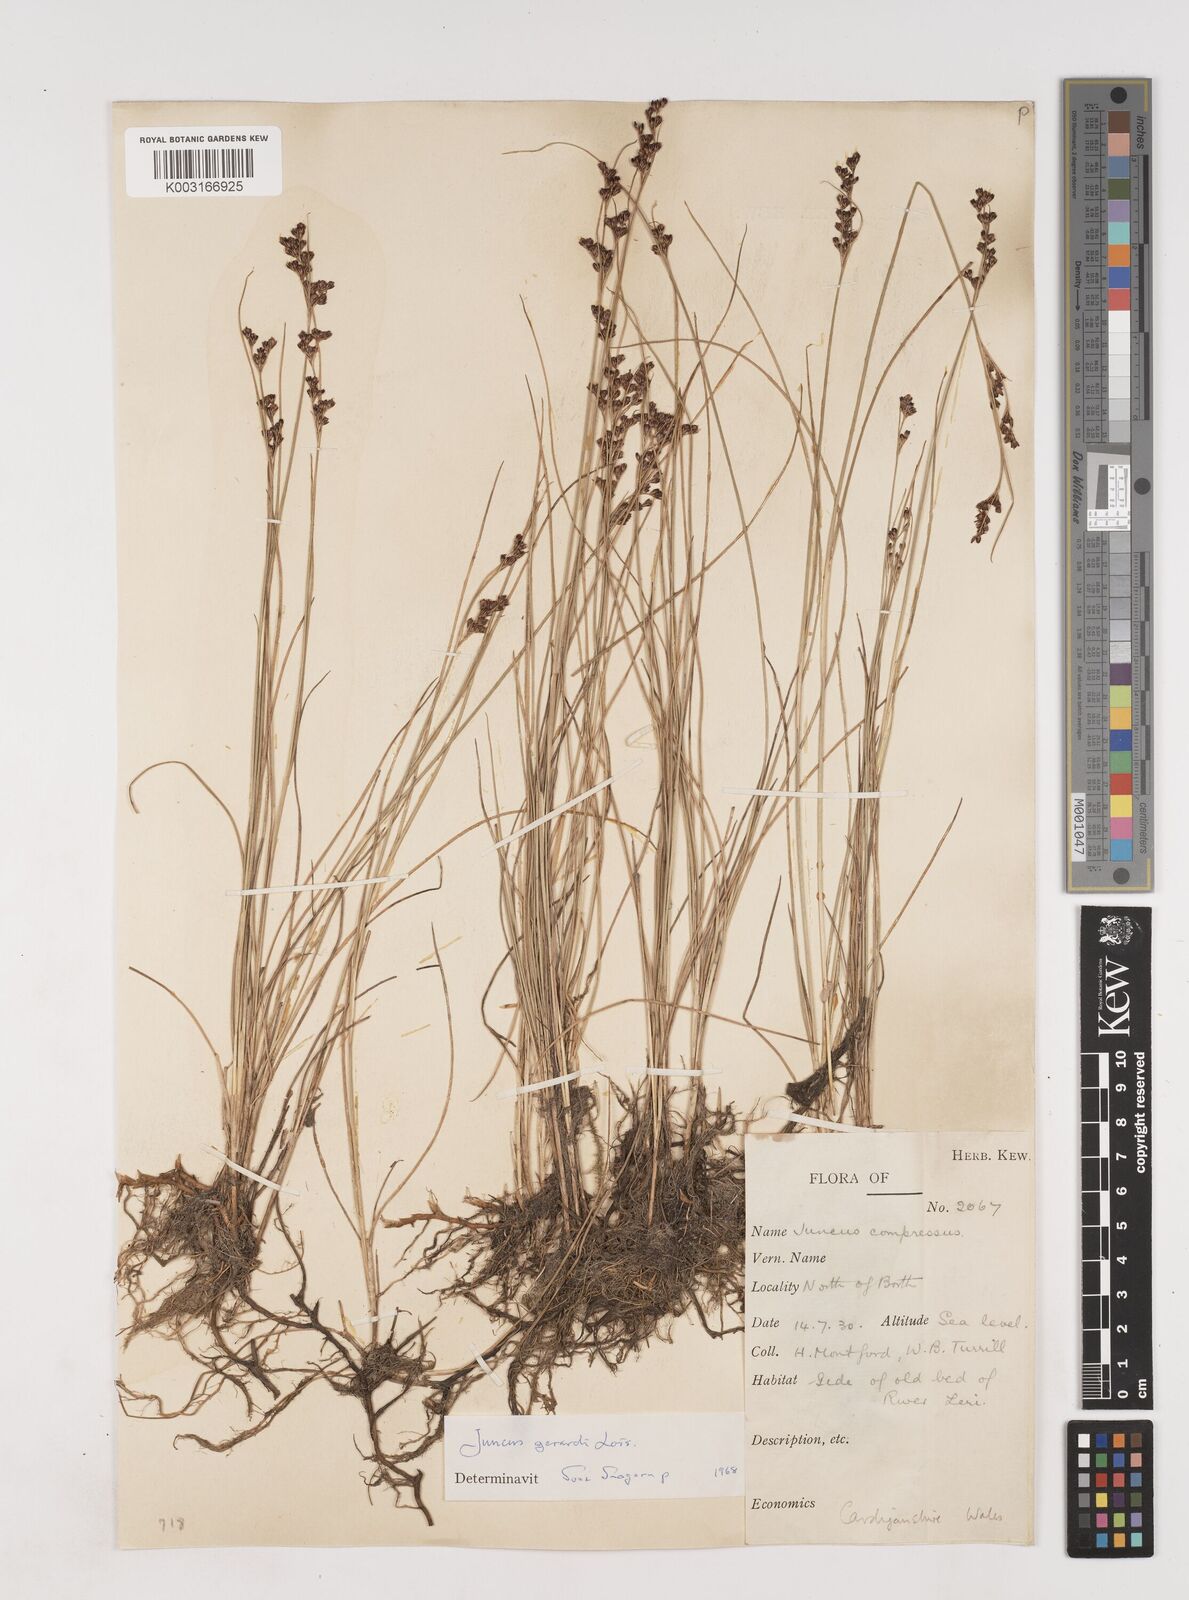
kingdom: Plantae
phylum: Tracheophyta
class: Liliopsida
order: Poales
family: Juncaceae
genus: Juncus
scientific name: Juncus gerardi
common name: Saltmarsh rush
